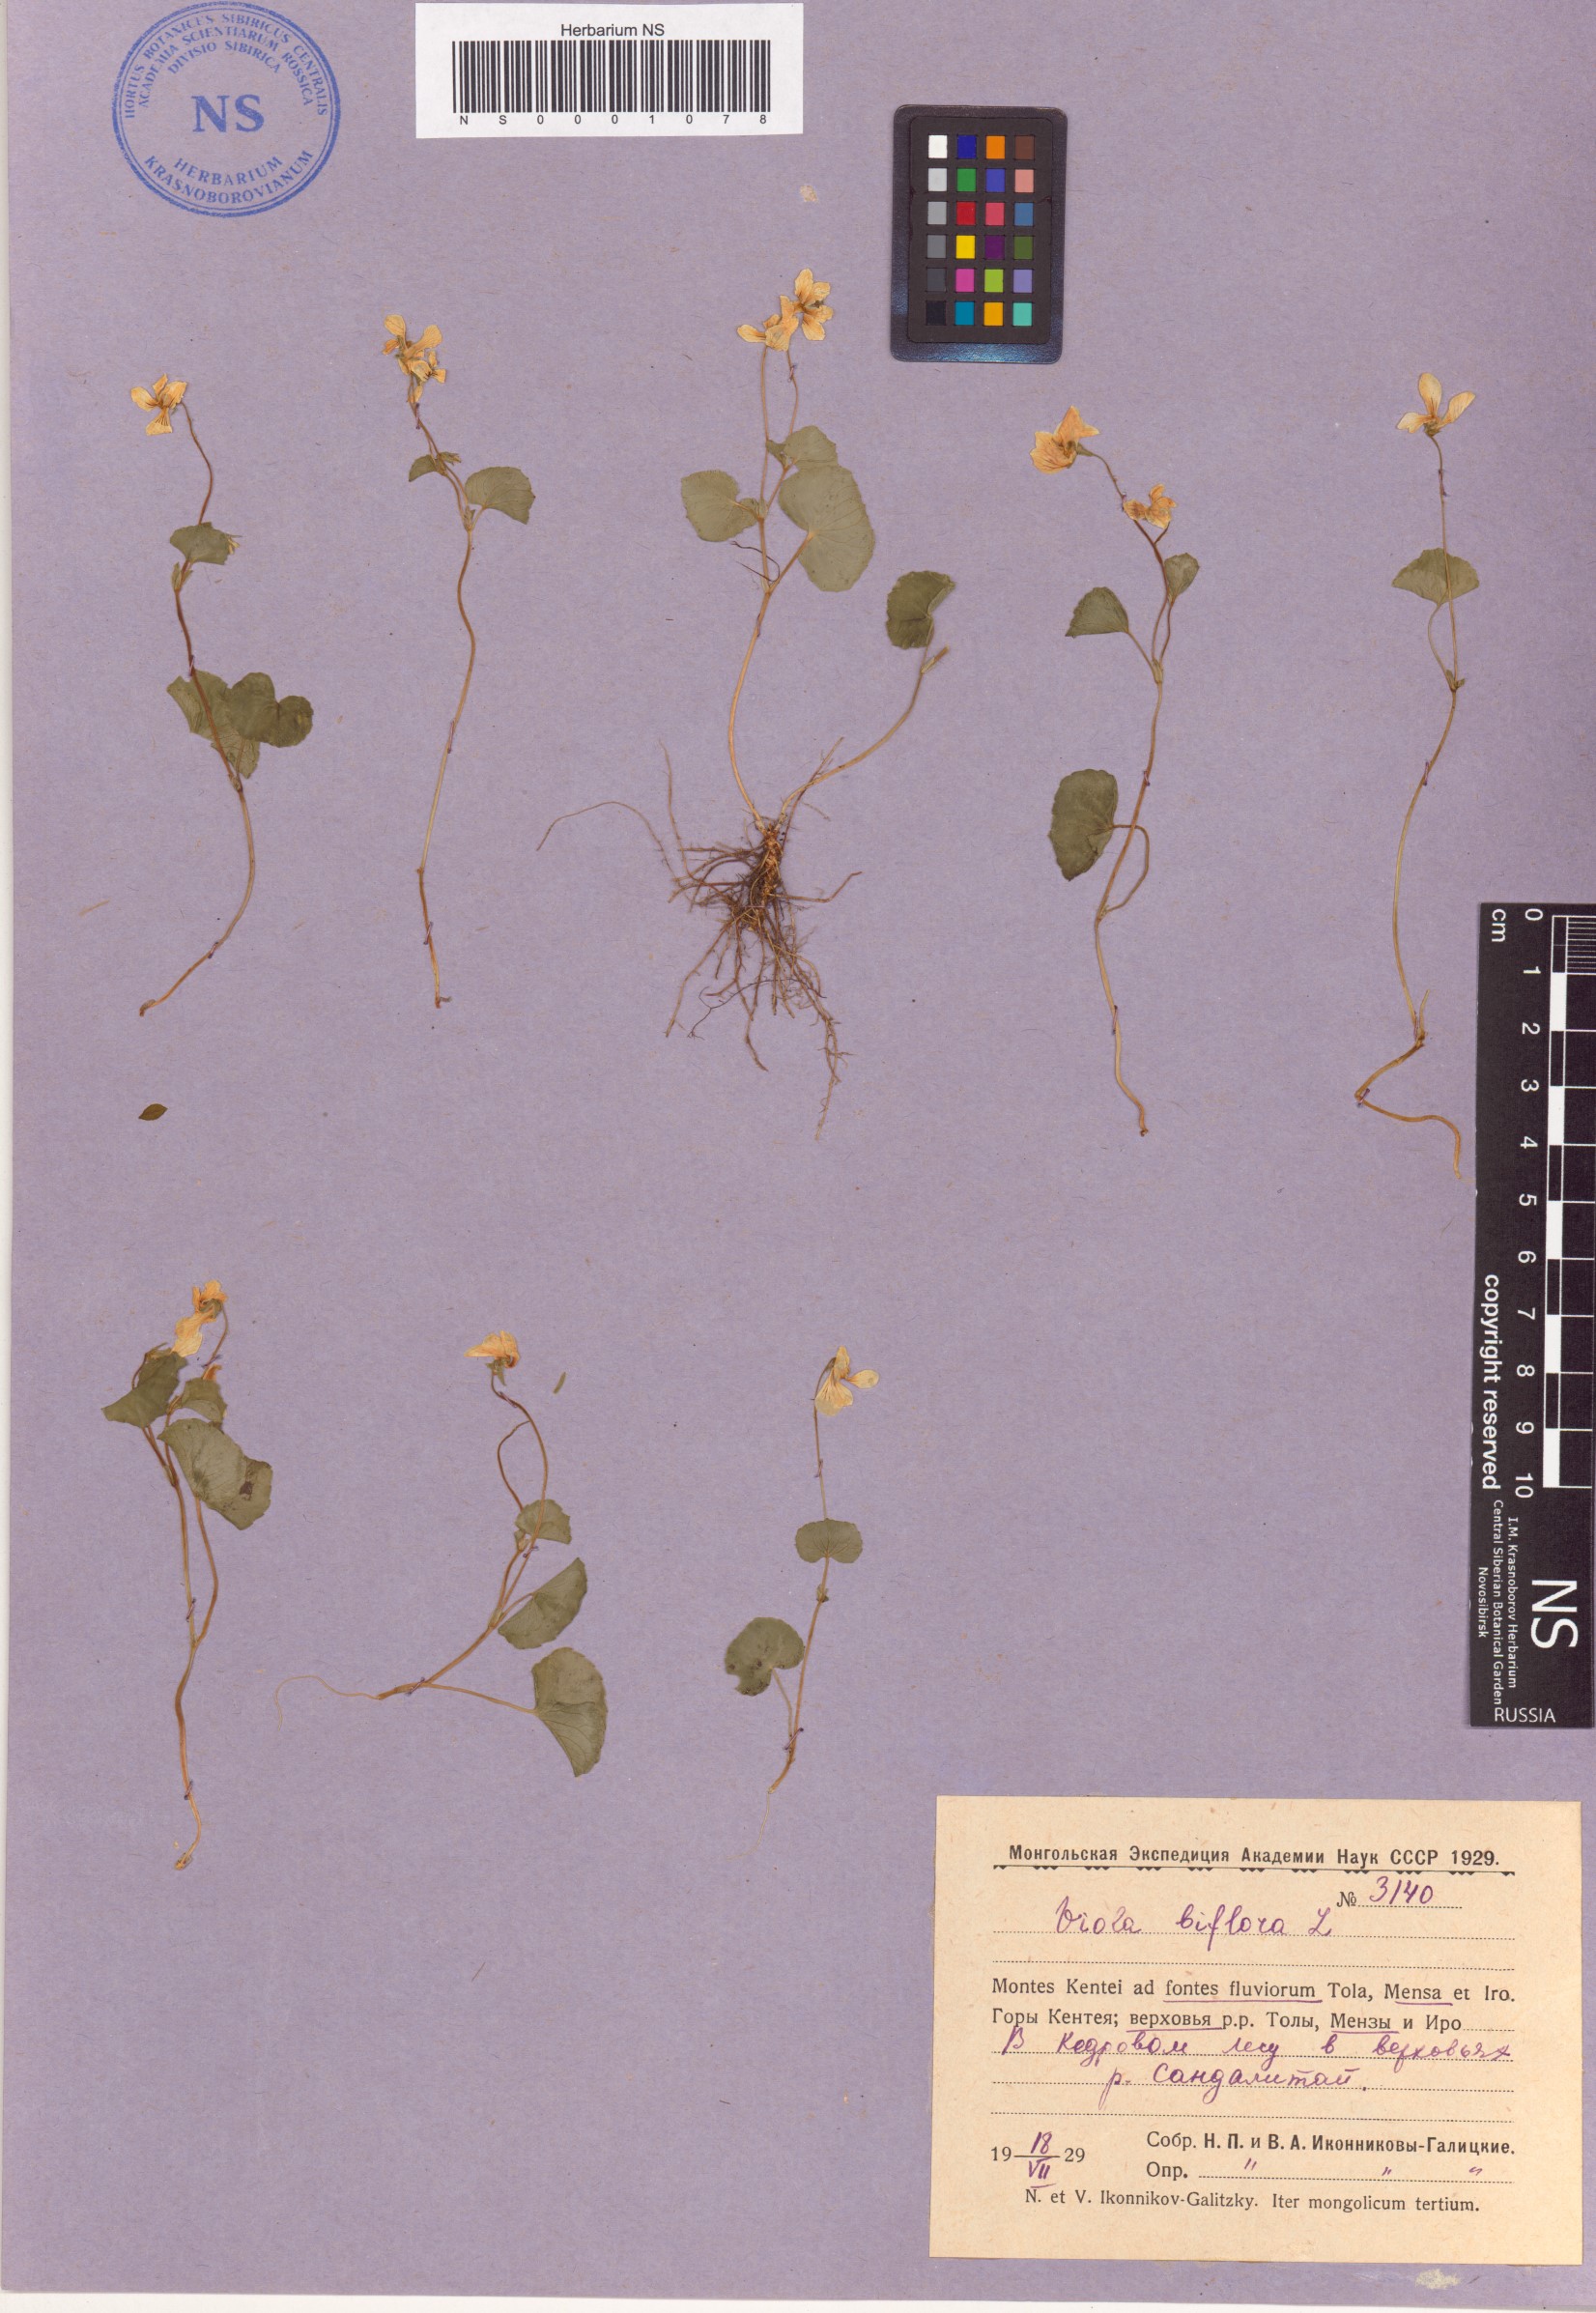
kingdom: Plantae
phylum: Tracheophyta
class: Magnoliopsida
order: Malpighiales
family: Violaceae
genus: Viola
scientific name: Viola biflora
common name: Alpine yellow violet
